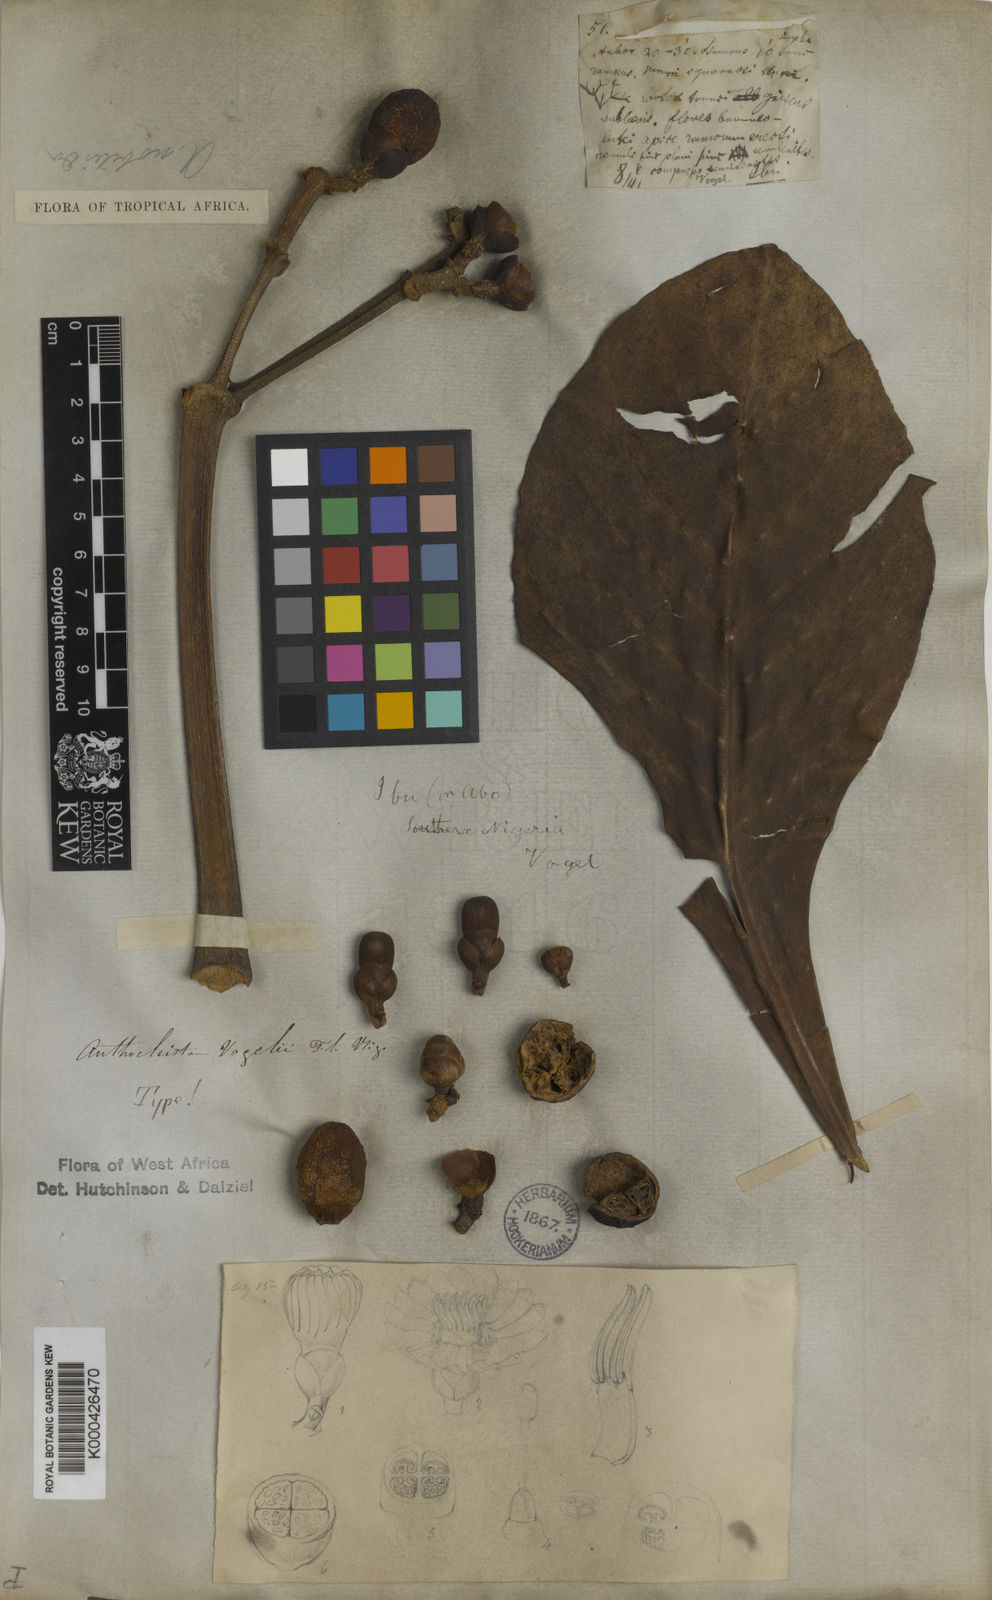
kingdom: Plantae
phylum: Tracheophyta
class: Magnoliopsida
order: Gentianales
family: Gentianaceae
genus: Anthocleista
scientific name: Anthocleista vogelii
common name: Cabbage tree
